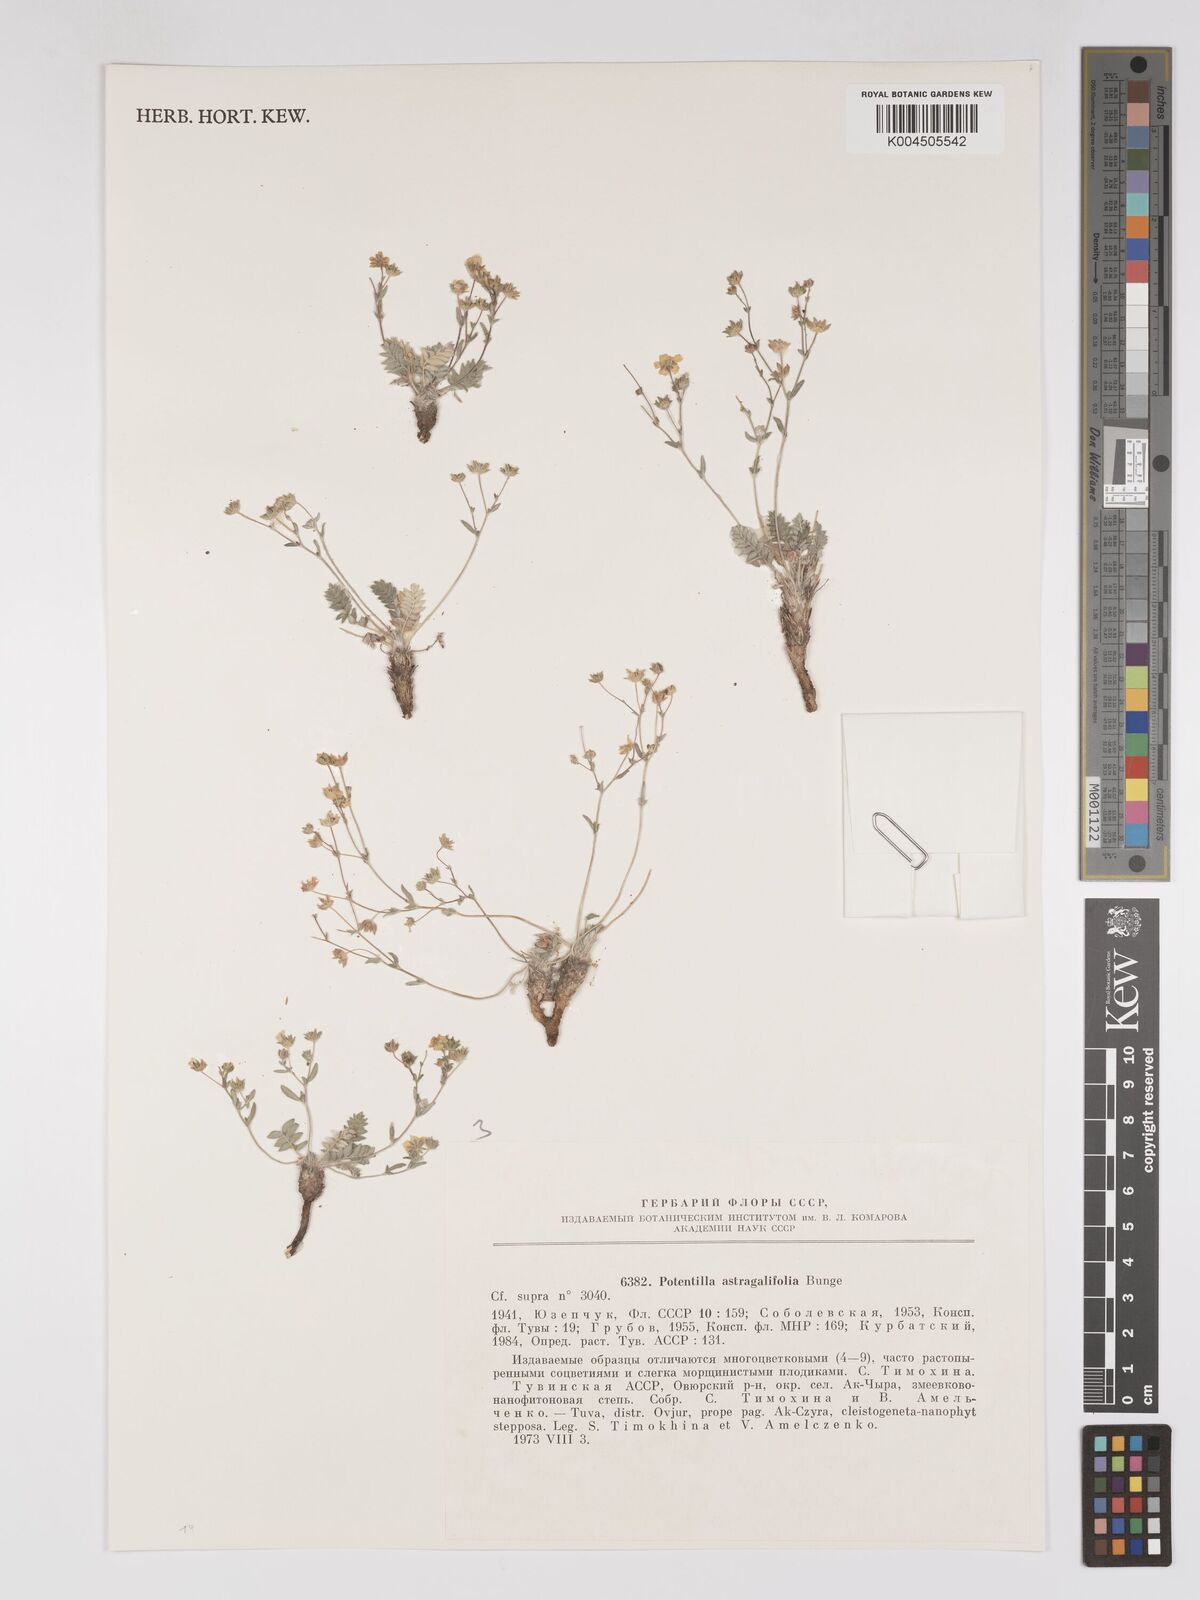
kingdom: Plantae
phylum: Tracheophyta
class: Magnoliopsida
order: Rosales
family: Rosaceae
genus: Sibbaldianthe
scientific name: Sibbaldianthe bifurca
